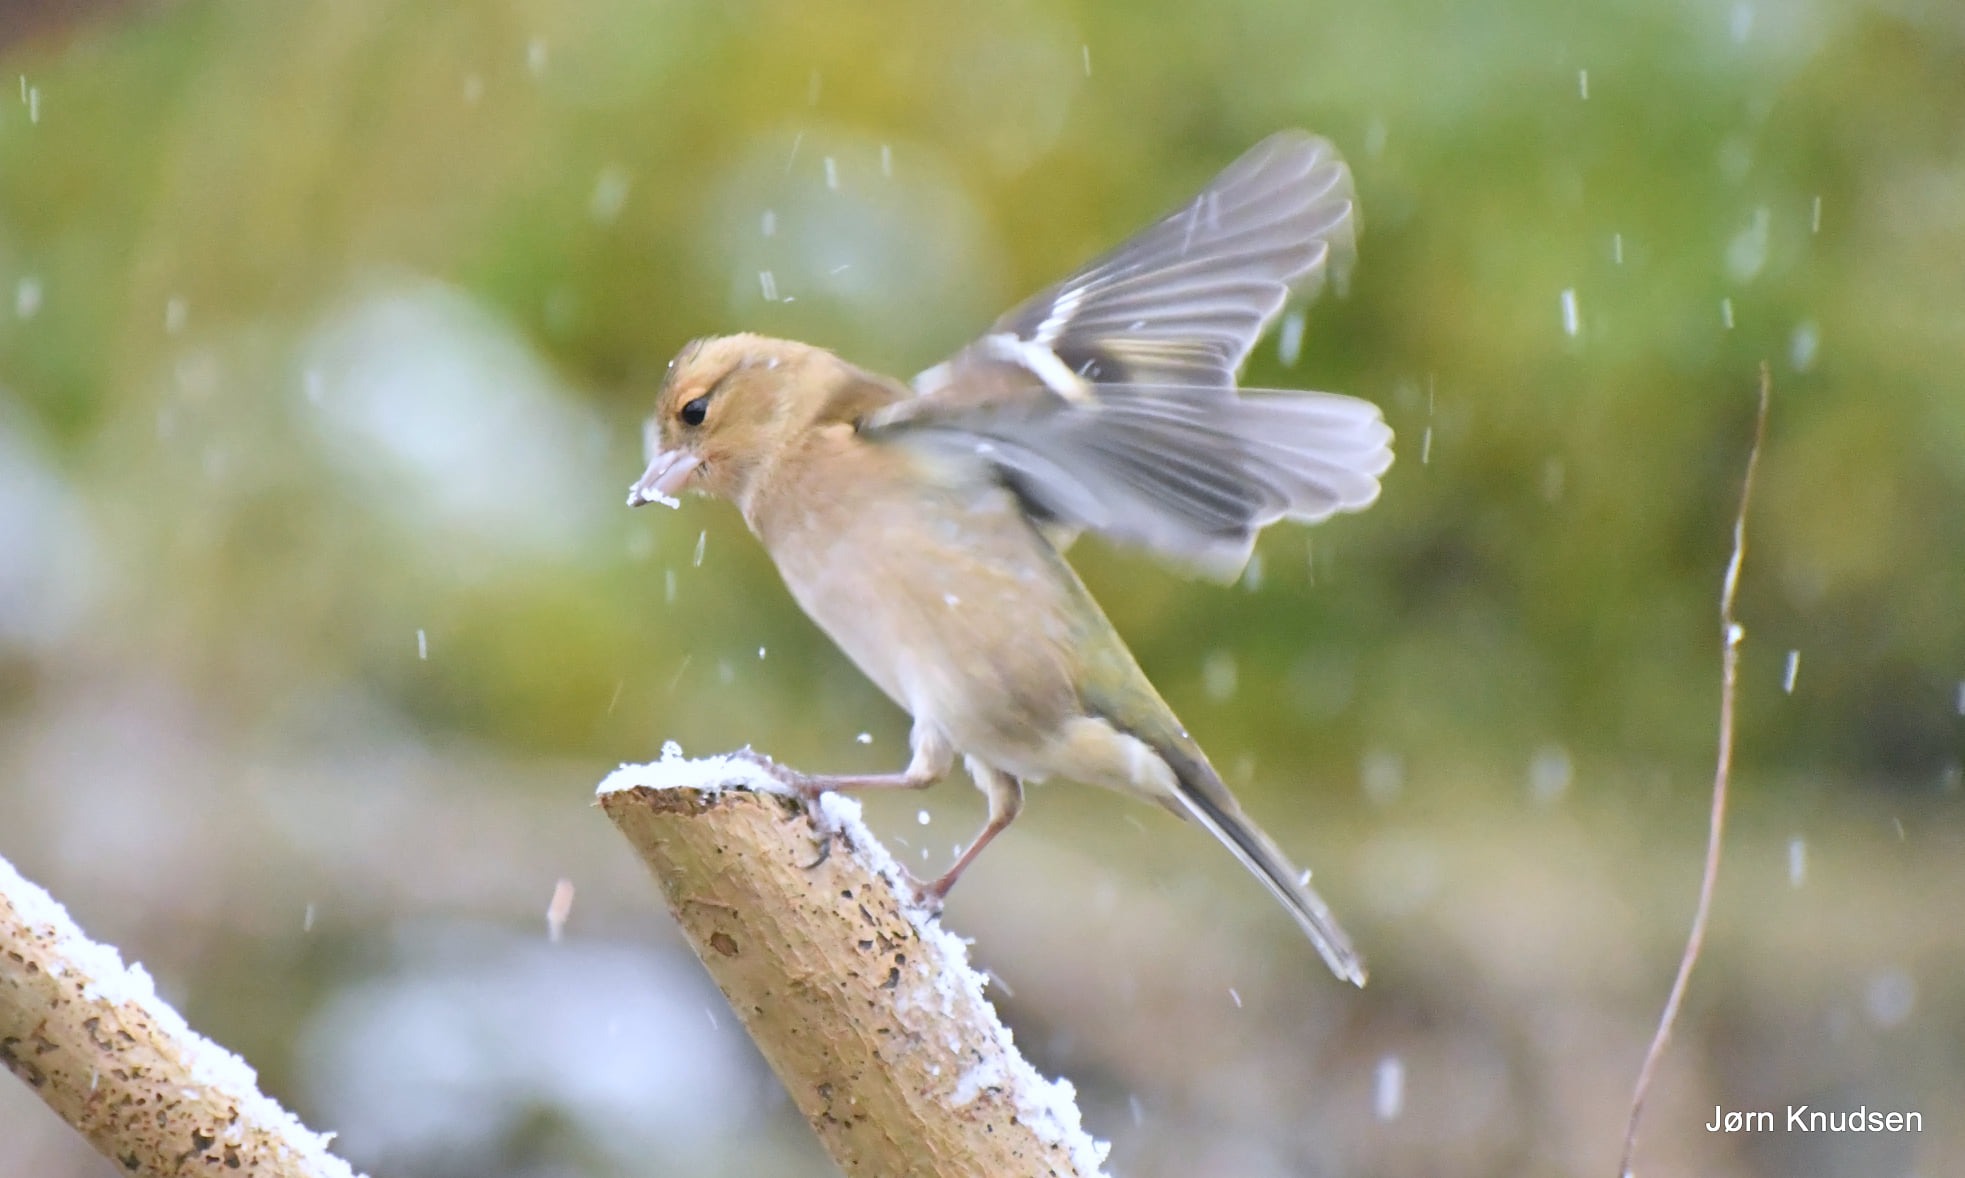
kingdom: Animalia
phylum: Chordata
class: Aves
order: Passeriformes
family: Fringillidae
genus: Fringilla
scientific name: Fringilla coelebs
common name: Bogfinke
